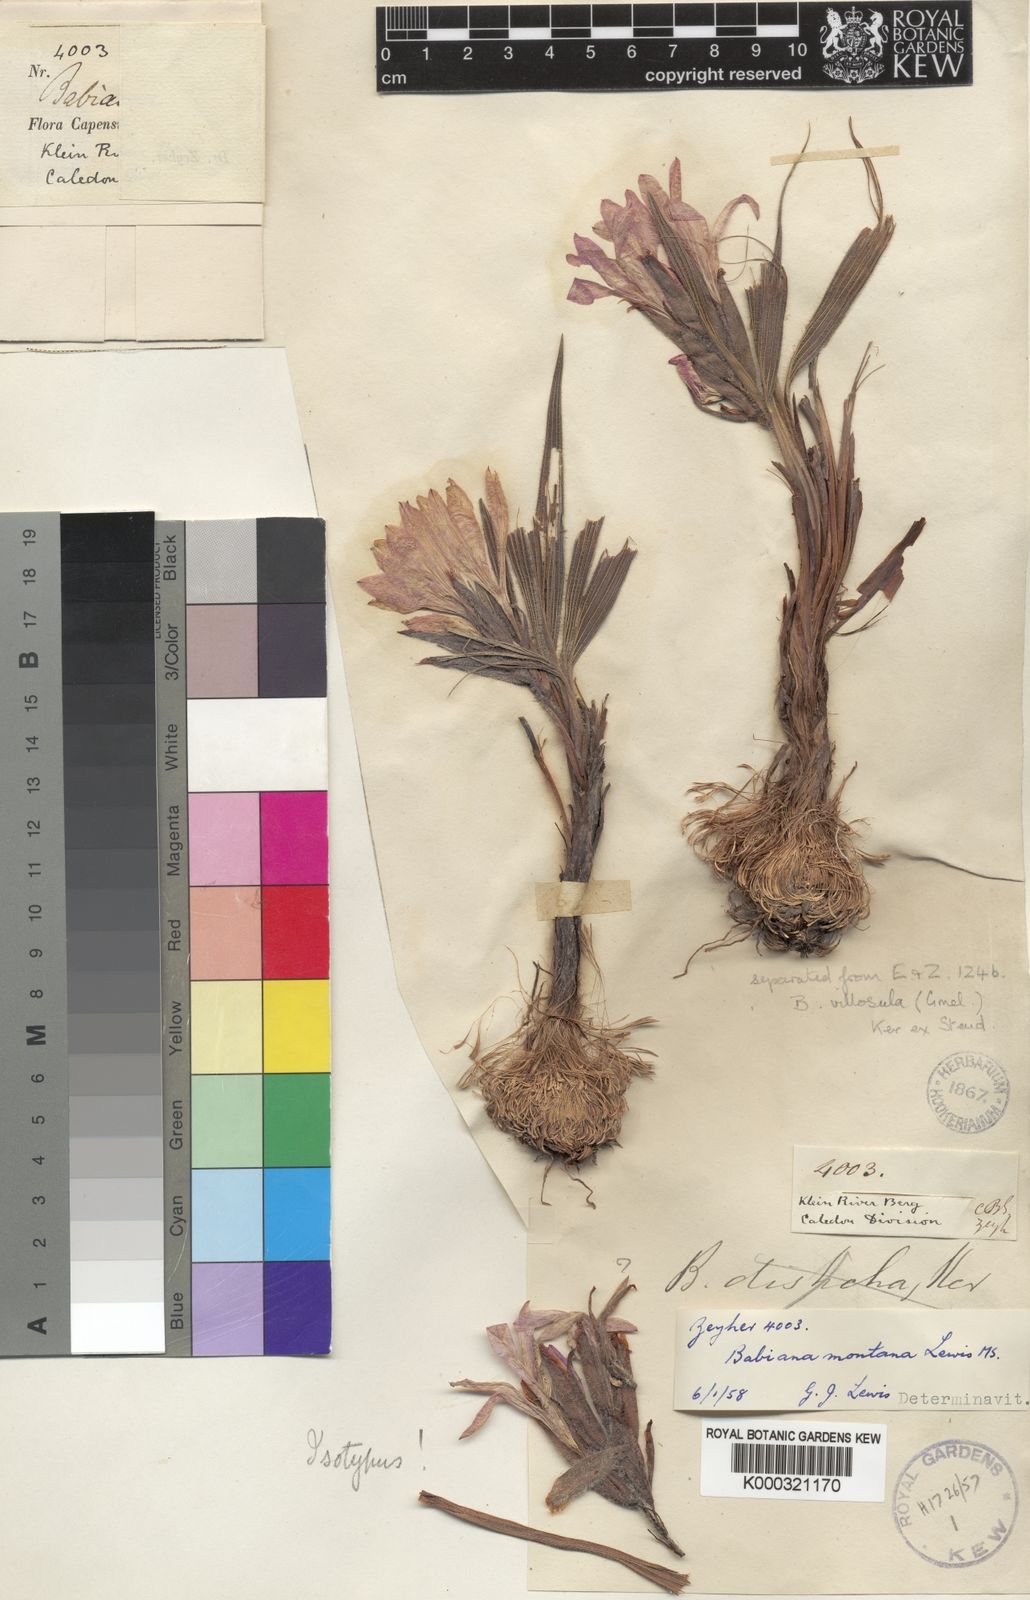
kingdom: Plantae
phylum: Tracheophyta
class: Liliopsida
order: Asparagales
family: Iridaceae
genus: Babiana
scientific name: Babiana montana
